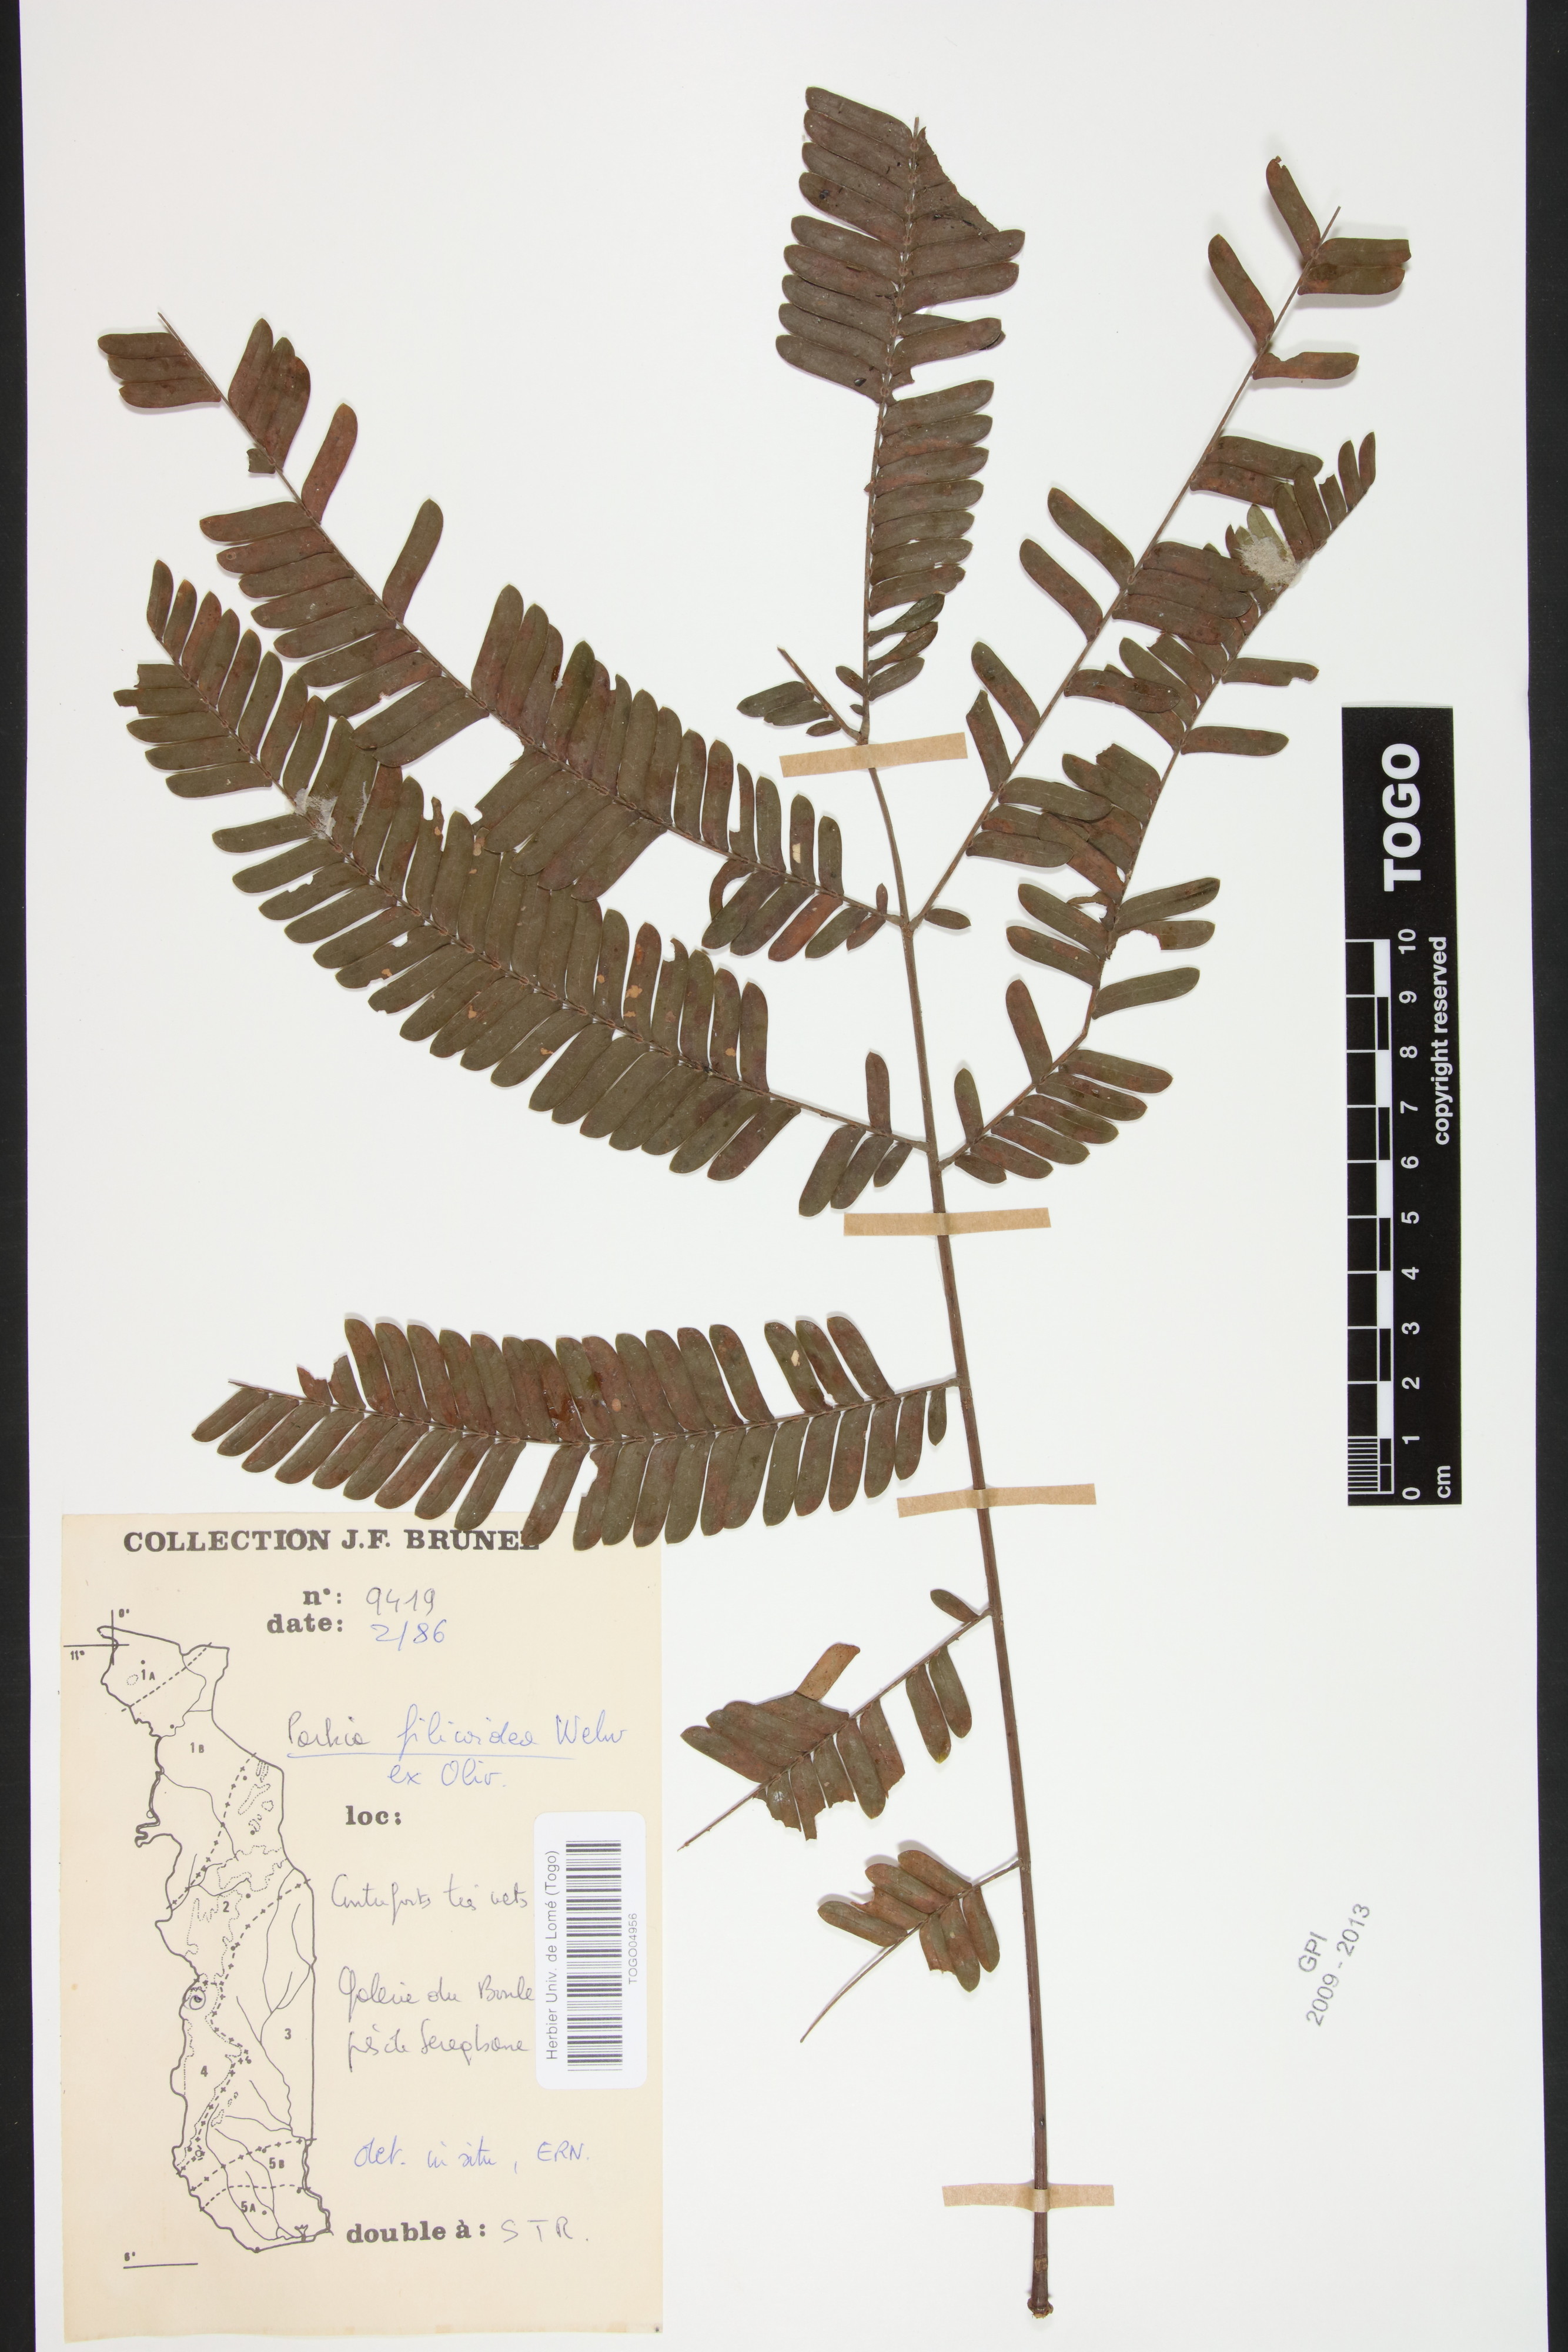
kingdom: Plantae
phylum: Tracheophyta
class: Magnoliopsida
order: Fabales
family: Fabaceae
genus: Parkia
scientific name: Parkia filicoidea
